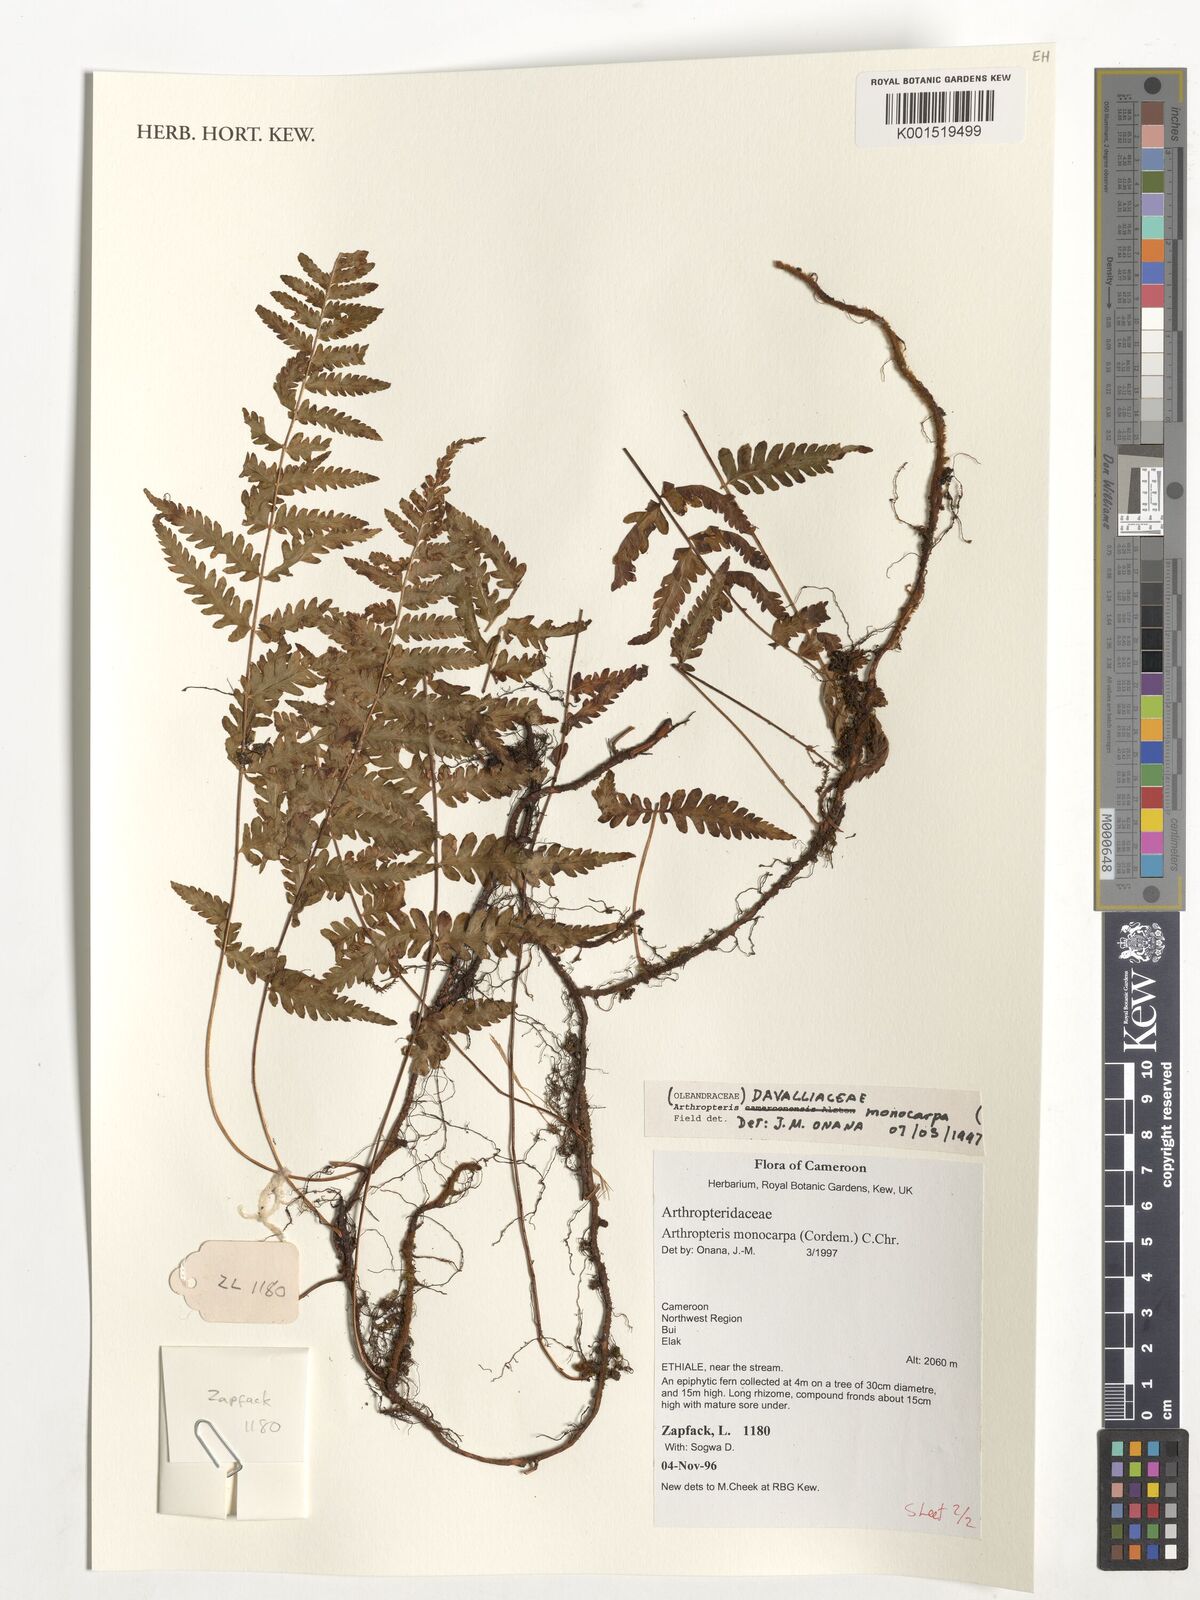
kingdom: Plantae
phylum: Tracheophyta
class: Polypodiopsida
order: Polypodiales
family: Tectariaceae
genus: Arthropteris
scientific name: Arthropteris monocarpa
